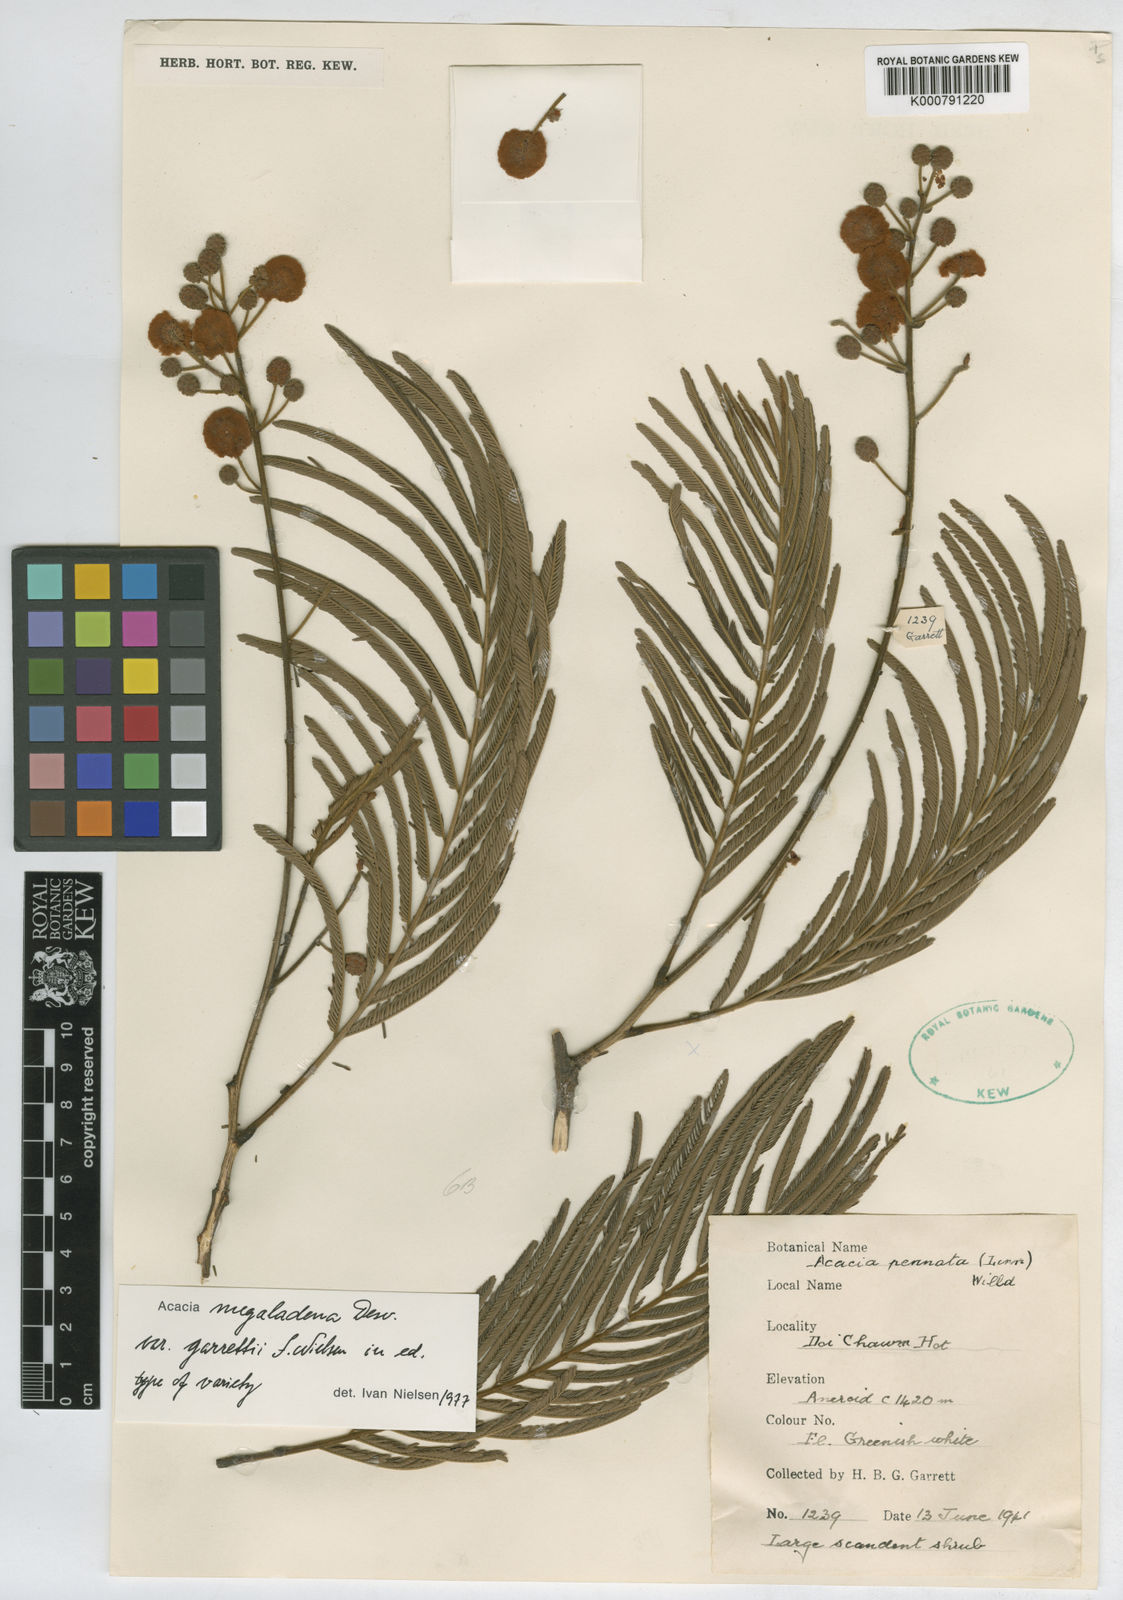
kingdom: Plantae
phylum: Tracheophyta
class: Magnoliopsida
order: Fabales
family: Fabaceae
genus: Senegalia
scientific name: Senegalia garrettii
